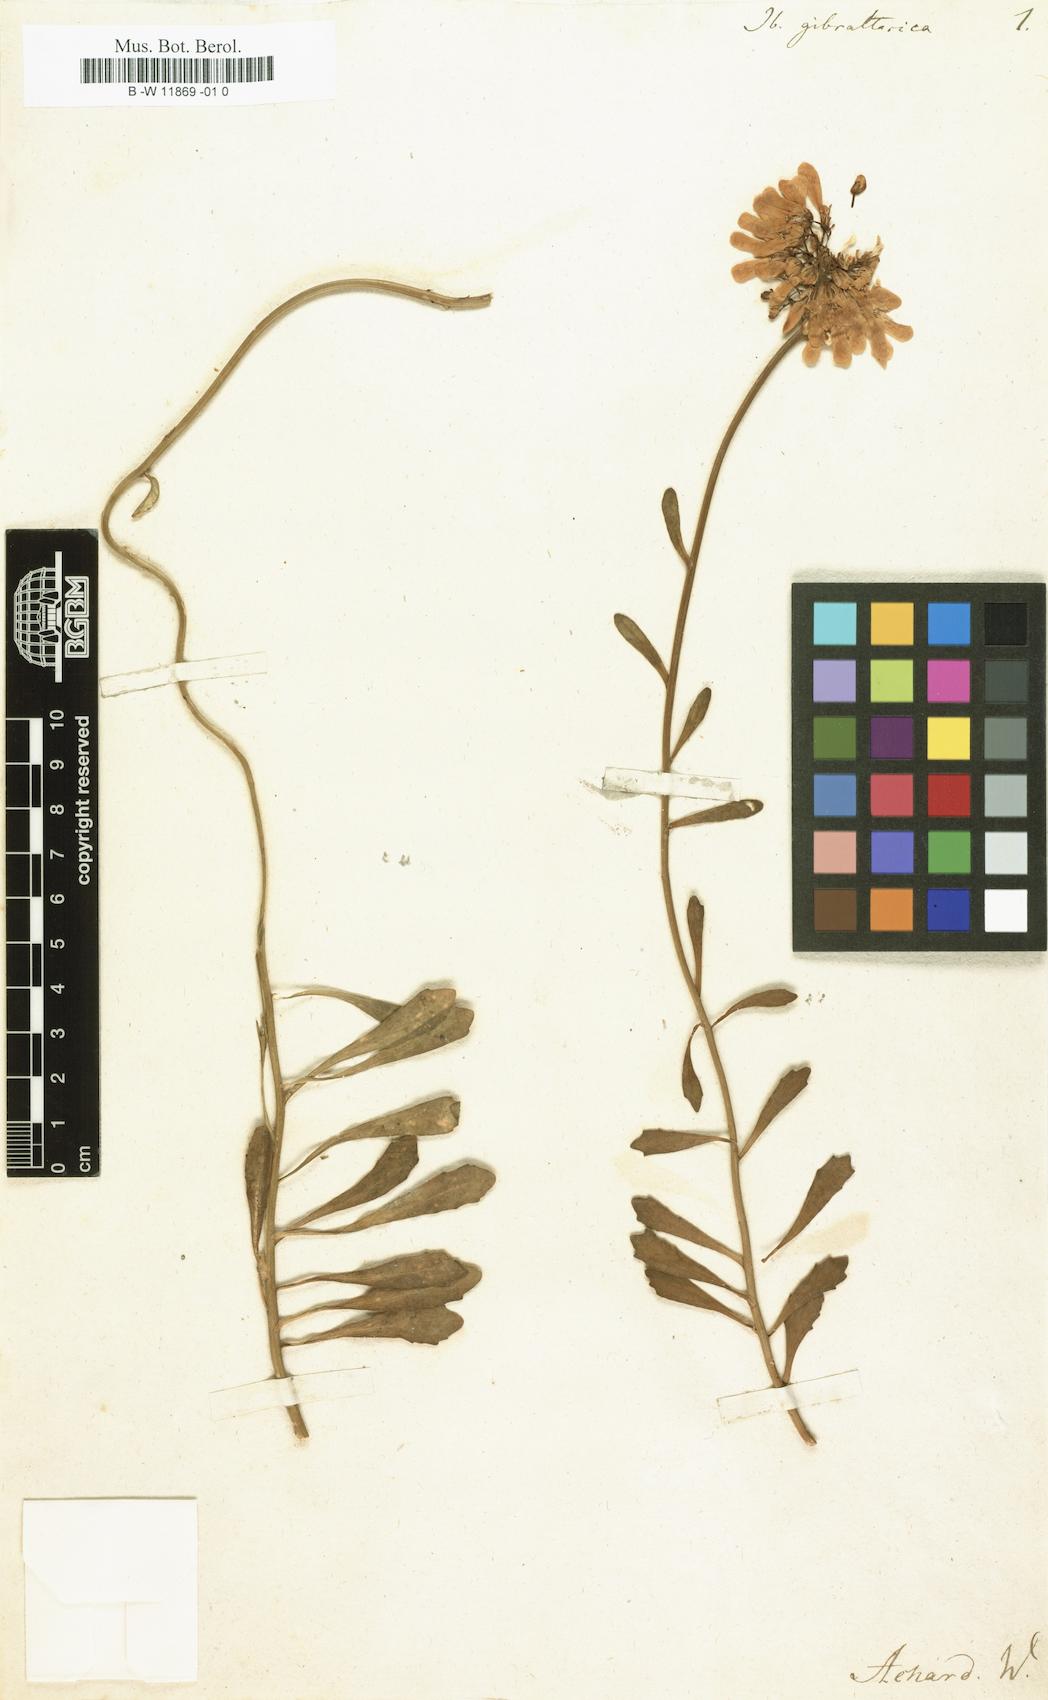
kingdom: Plantae
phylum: Tracheophyta
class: Magnoliopsida
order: Brassicales
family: Brassicaceae
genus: Iberis
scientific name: Iberis gibraltarica
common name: Gibraltar candytuft
